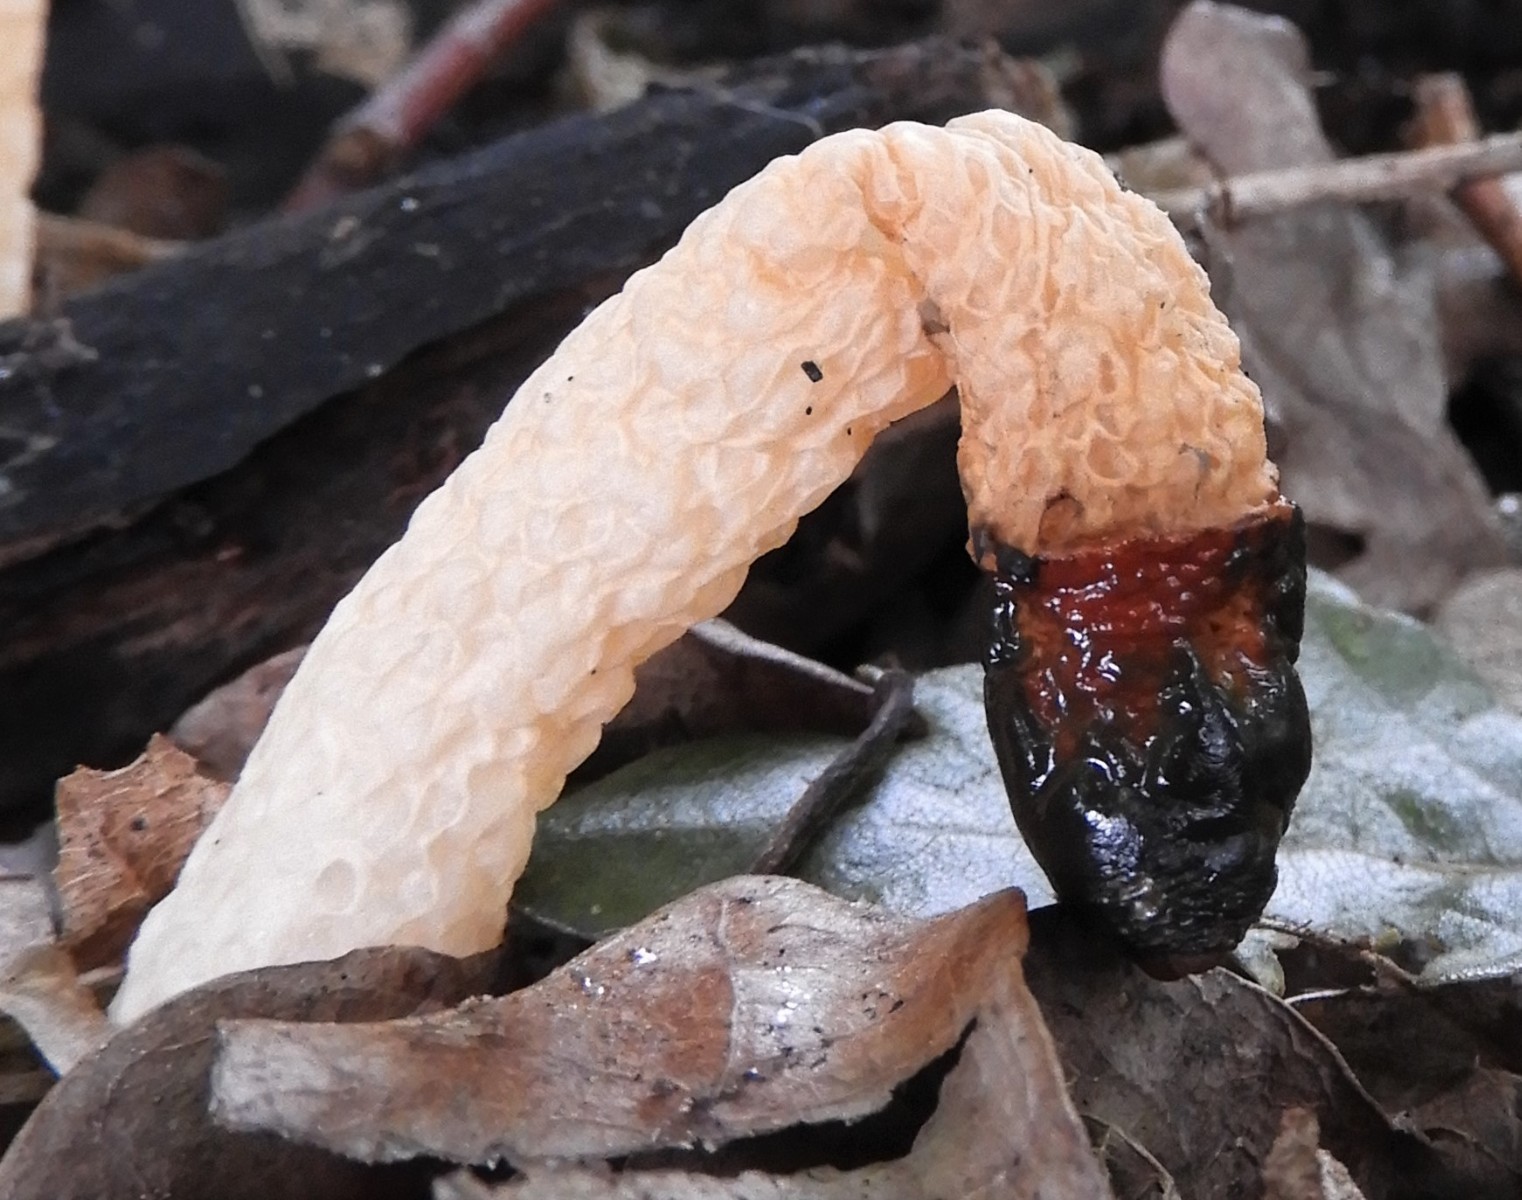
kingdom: Fungi
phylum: Basidiomycota
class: Agaricomycetes
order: Phallales
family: Phallaceae
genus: Mutinus
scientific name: Mutinus caninus
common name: hunde-stinksvamp
